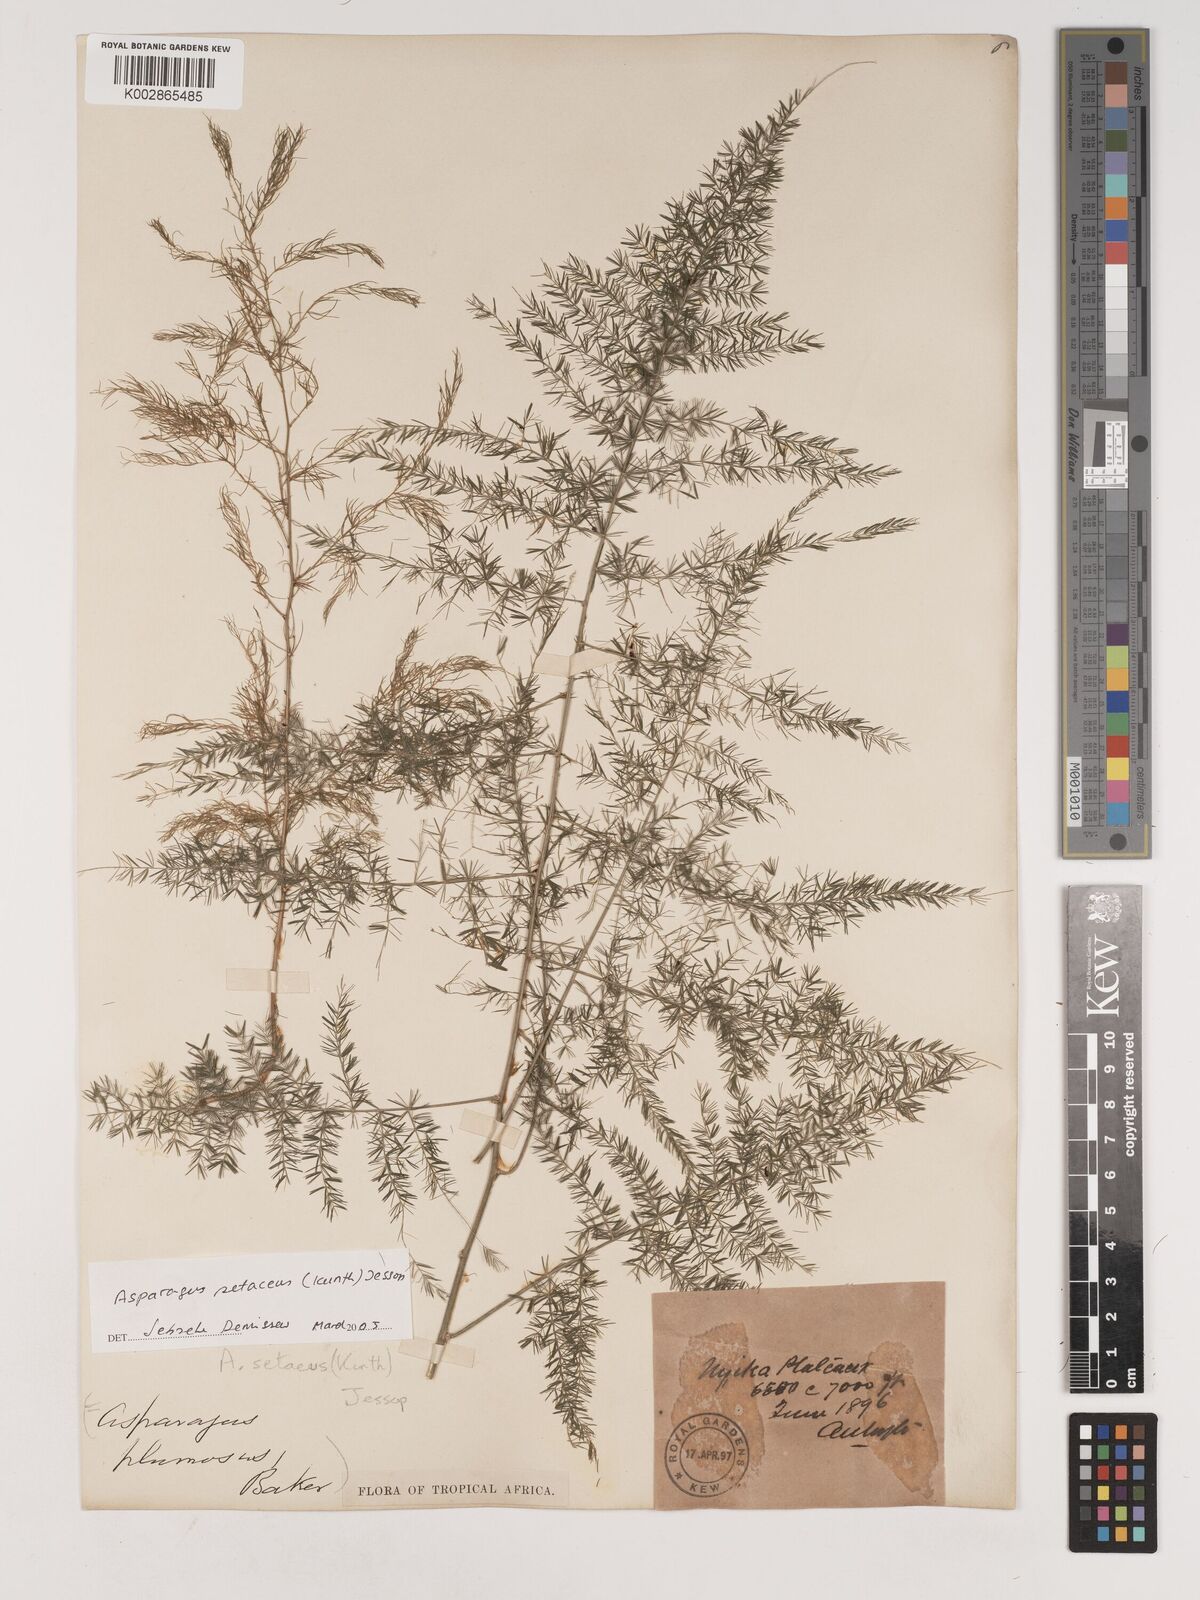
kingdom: Plantae
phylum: Tracheophyta
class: Liliopsida
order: Asparagales
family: Asparagaceae
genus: Asparagus
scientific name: Asparagus setaceus
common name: Common asparagus fern
